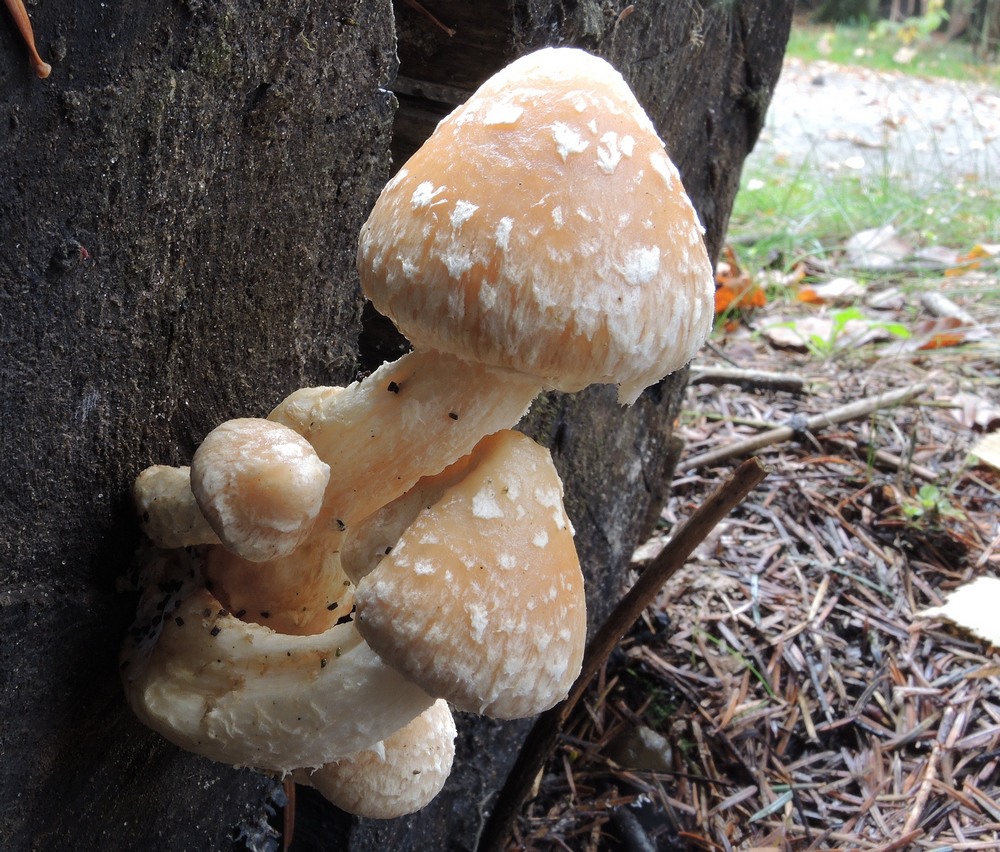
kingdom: Fungi
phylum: Basidiomycota
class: Agaricomycetes
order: Agaricales
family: Strophariaceae
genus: Pholiota
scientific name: Pholiota populnea
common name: poppel-kæmpeskælhat
